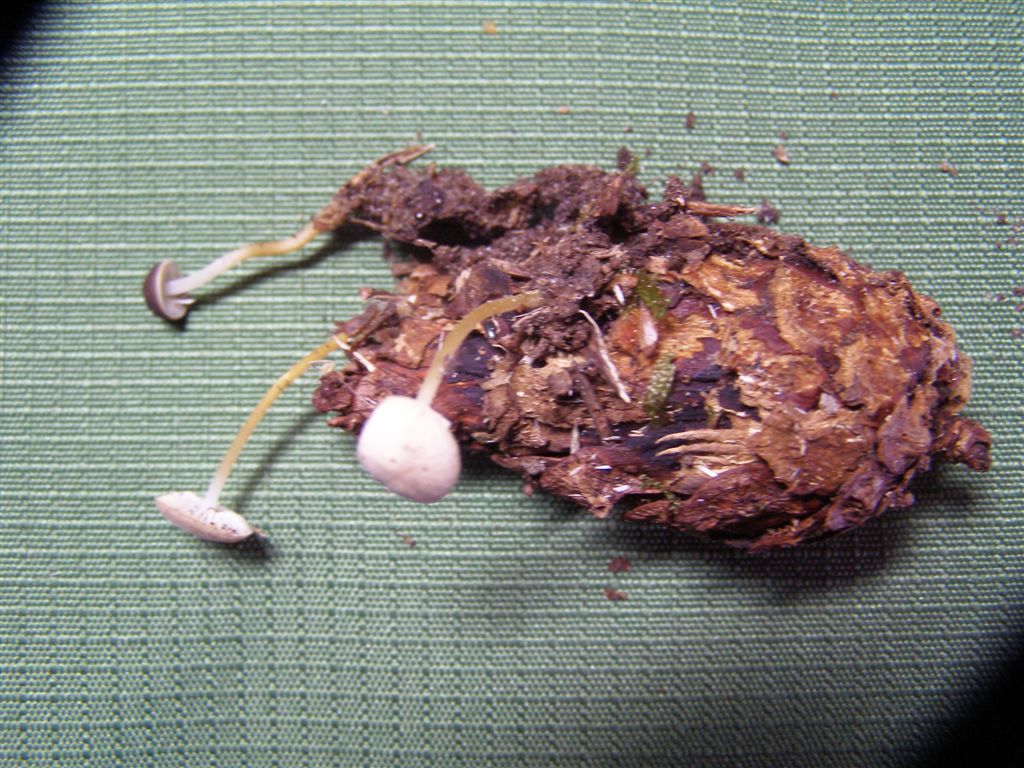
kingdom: Fungi
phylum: Basidiomycota
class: Agaricomycetes
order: Agaricales
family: Physalacriaceae
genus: Strobilurus
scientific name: Strobilurus tenacellus
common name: sommer-koglehat
